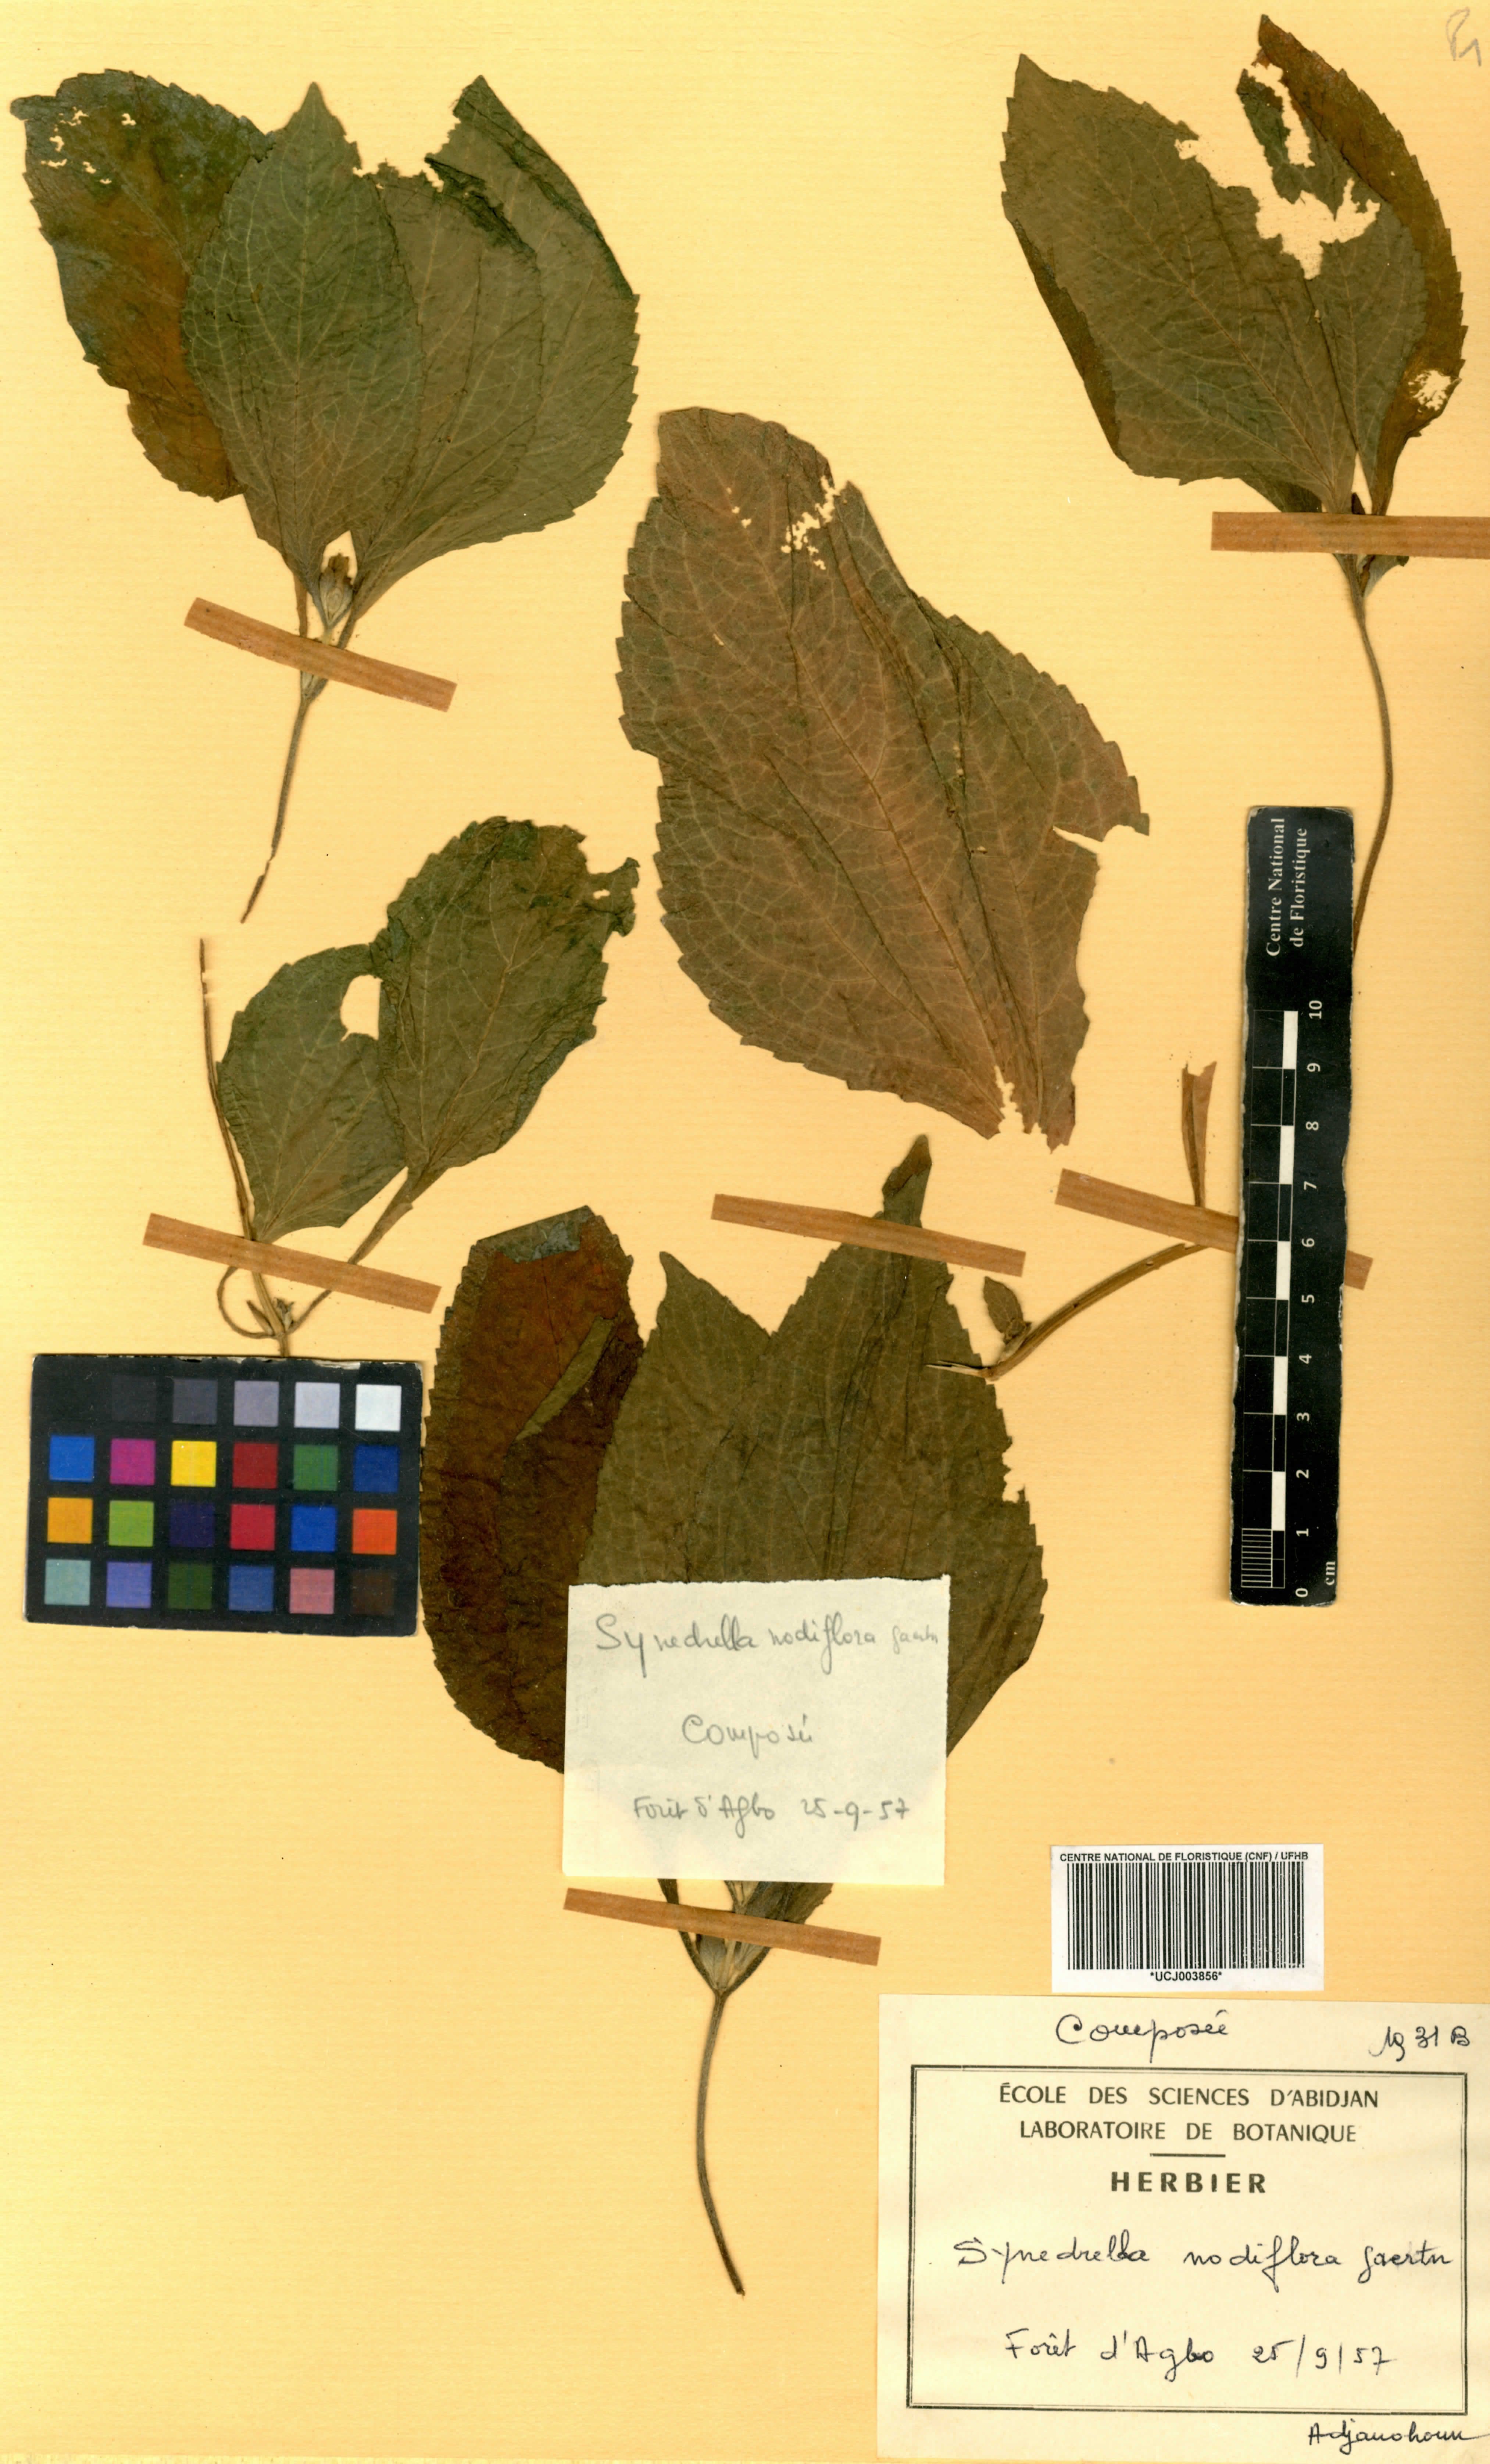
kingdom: Plantae
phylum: Tracheophyta
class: Magnoliopsida
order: Asterales
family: Asteraceae
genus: Synedrella
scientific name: Synedrella nodiflora
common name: Nodeweed
